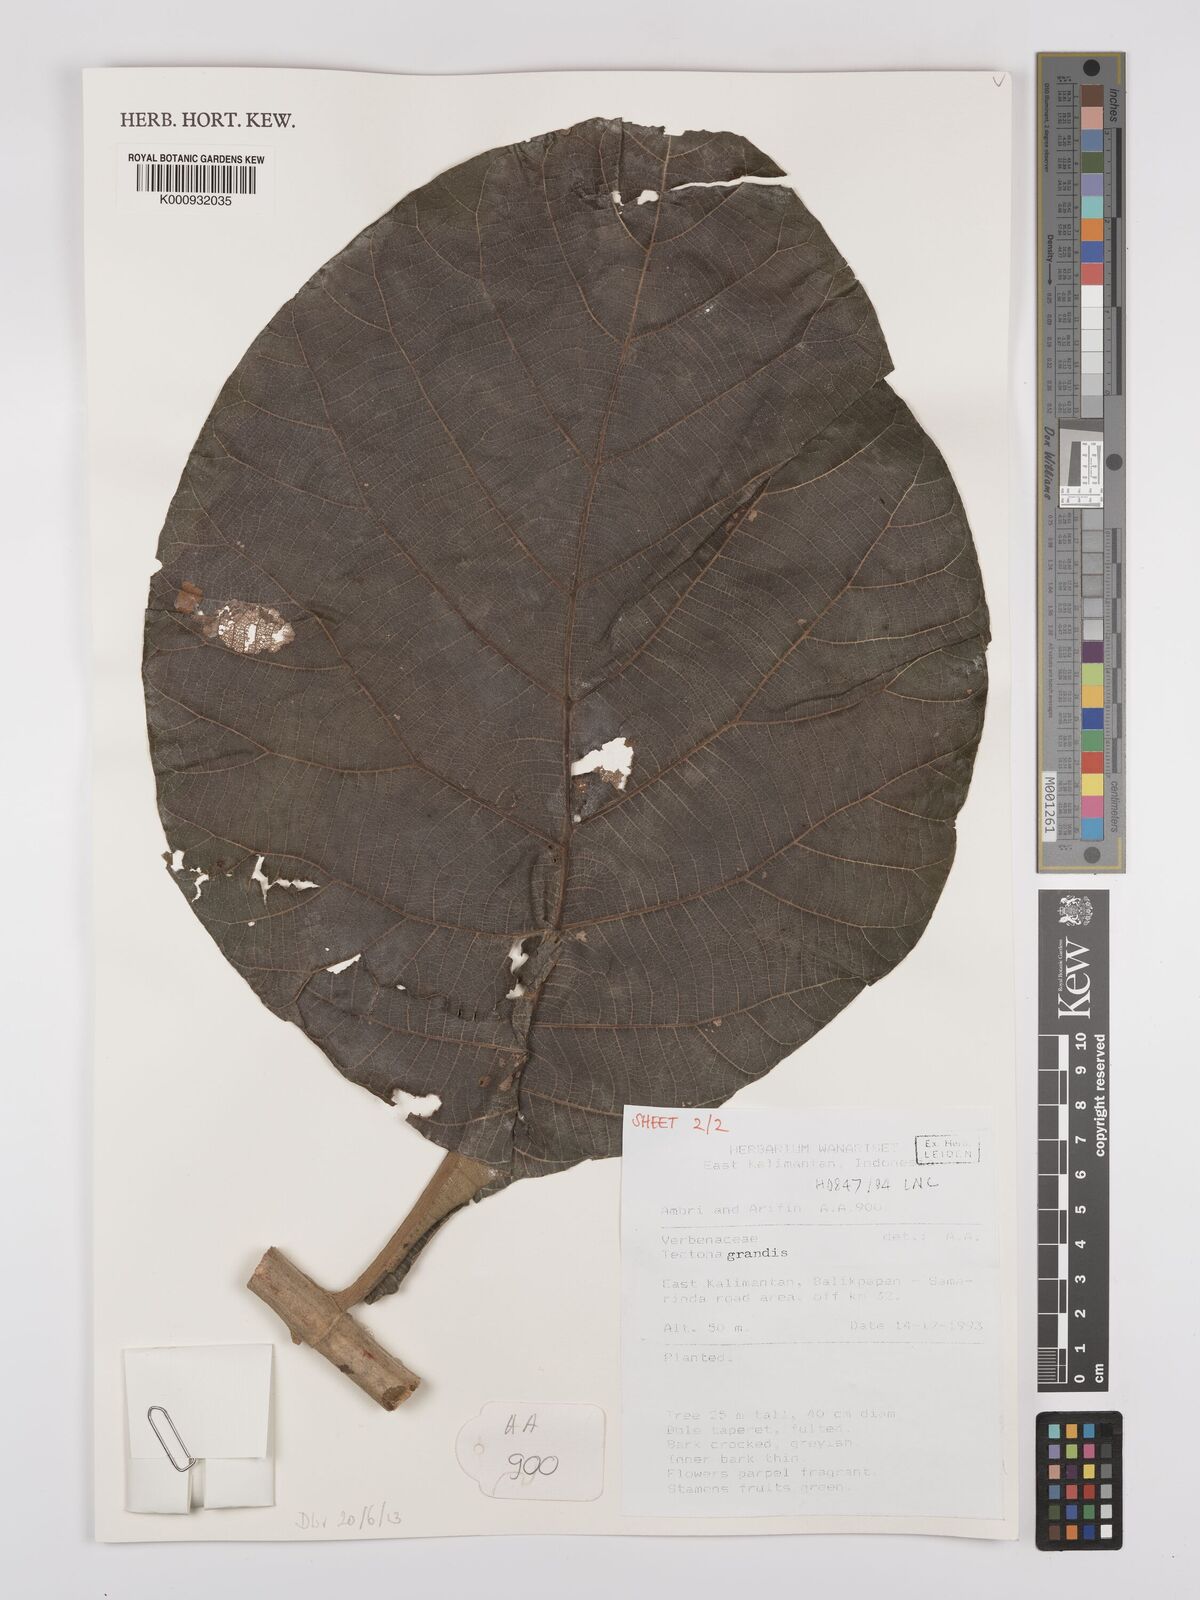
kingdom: Plantae
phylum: Tracheophyta
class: Magnoliopsida
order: Lamiales
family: Lamiaceae
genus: Tectona
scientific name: Tectona grandis
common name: Teak
